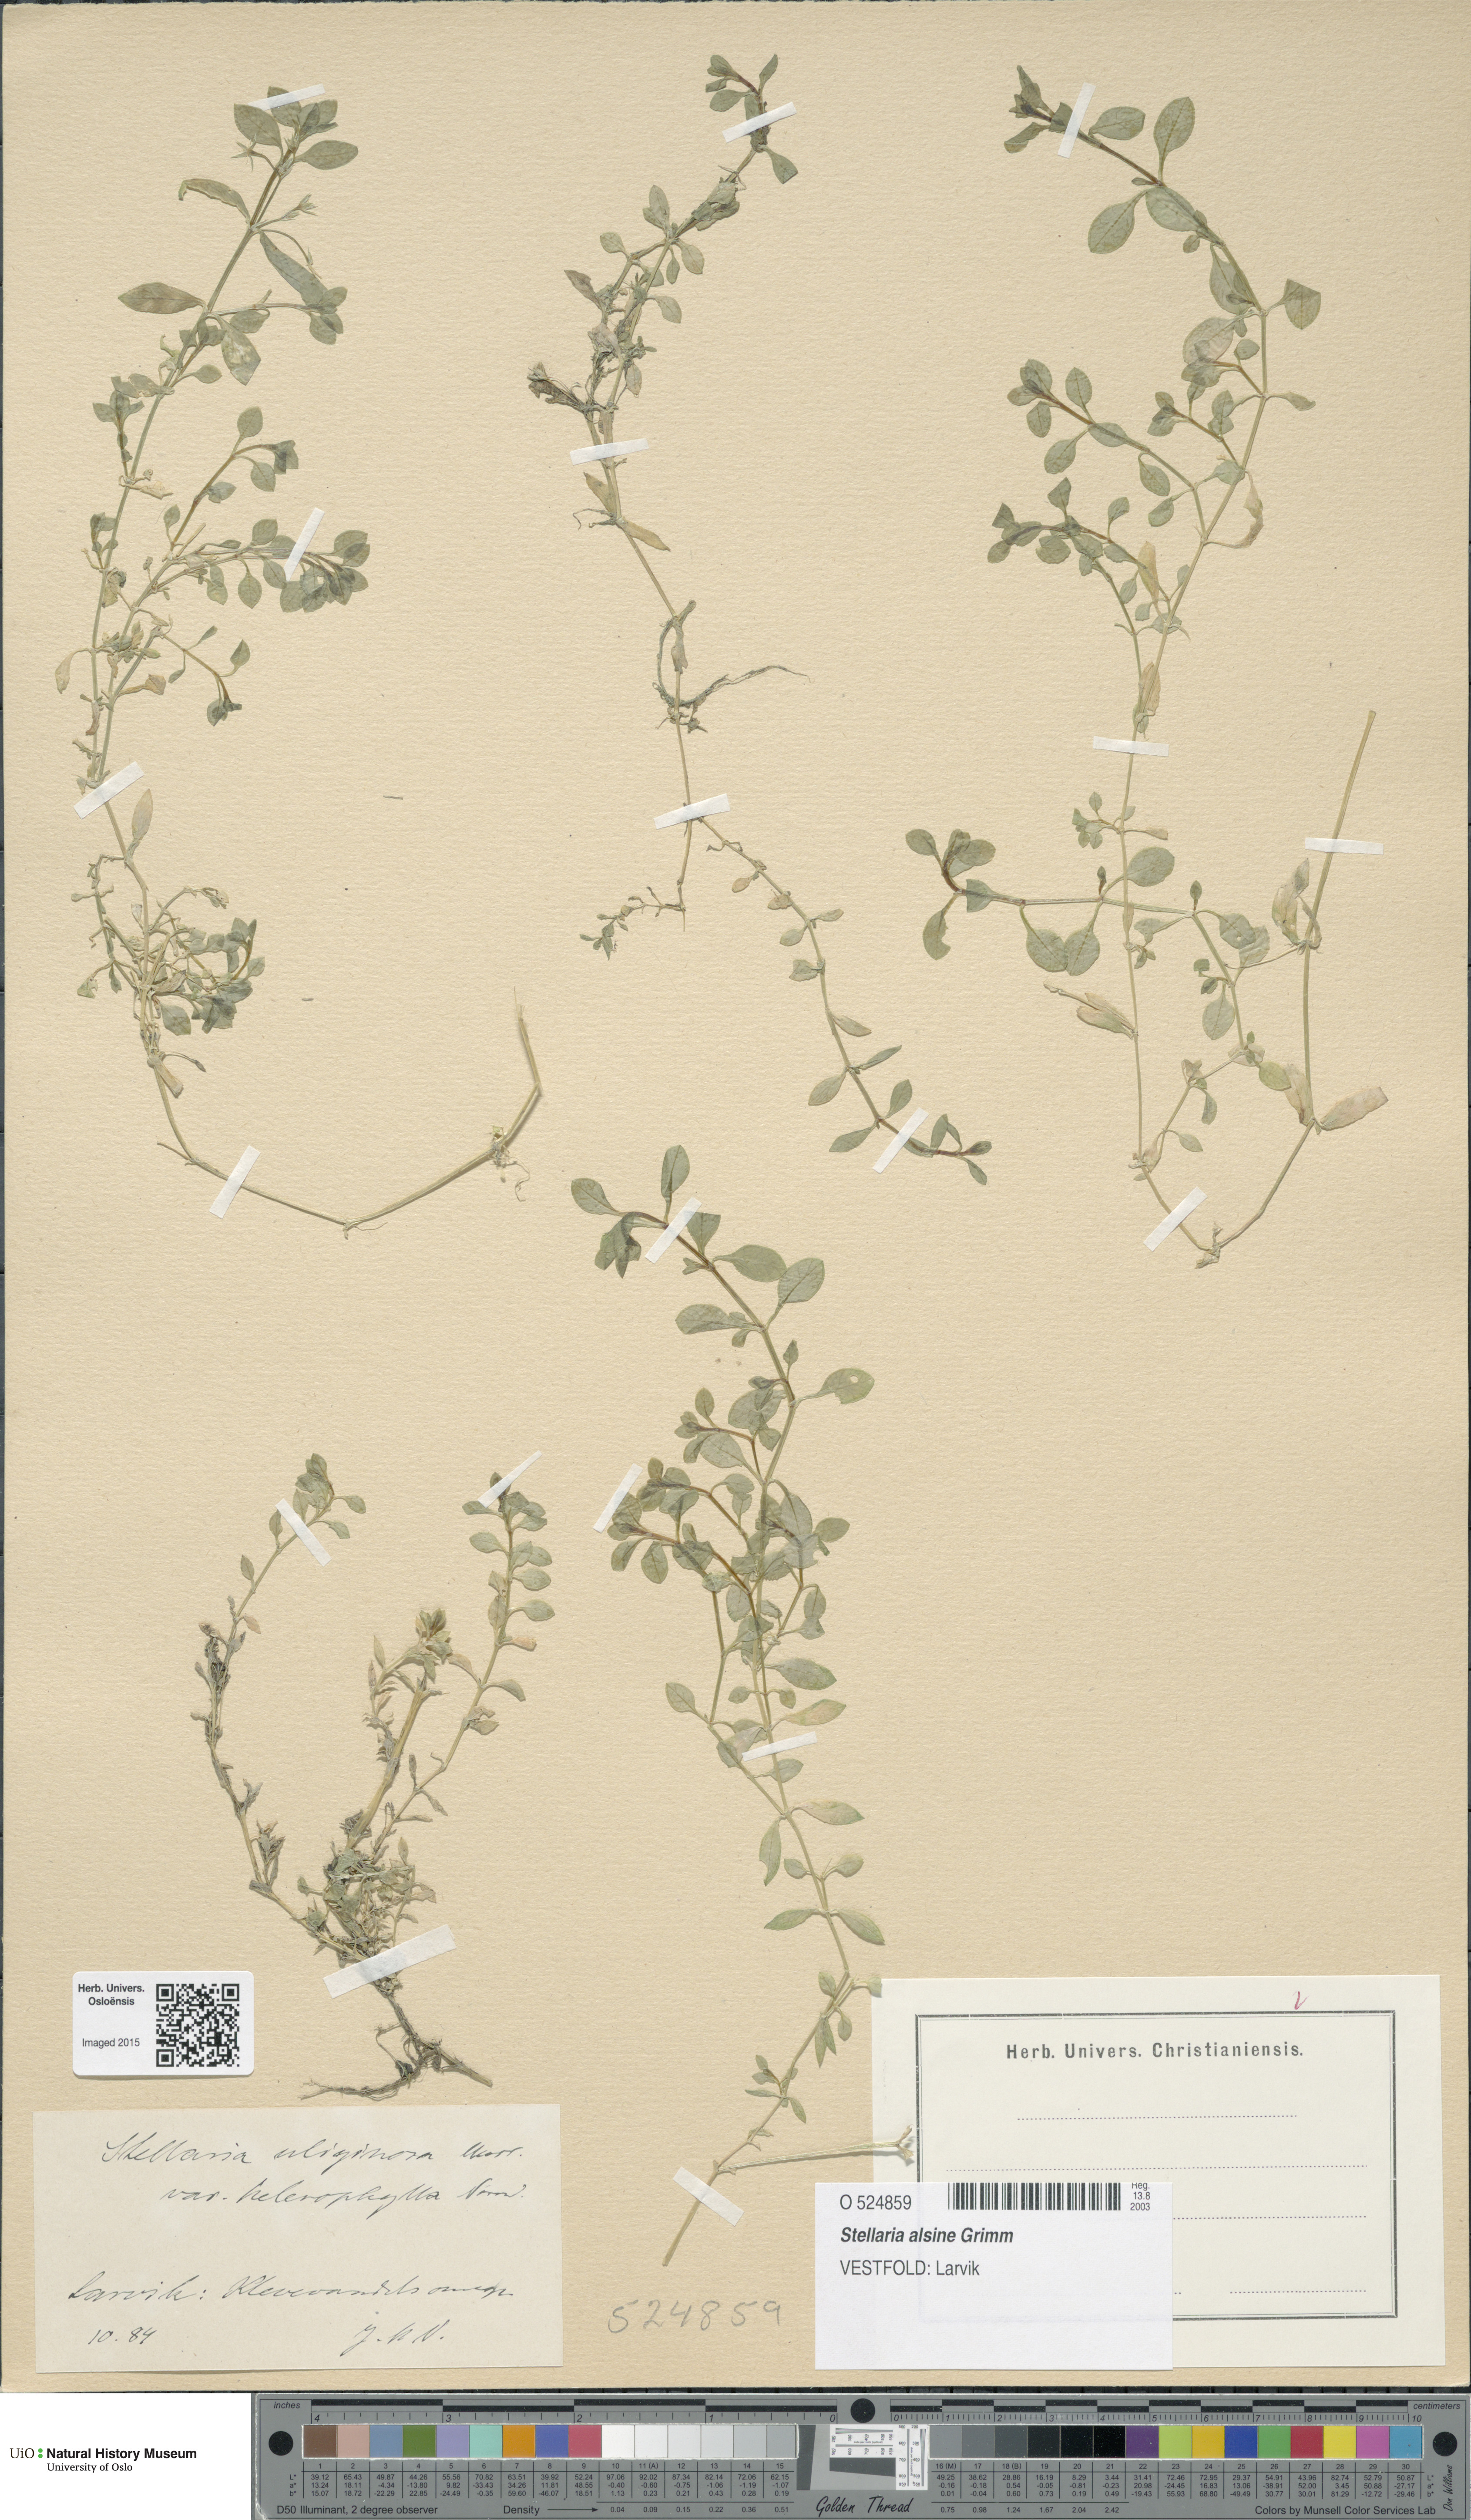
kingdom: Plantae
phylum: Tracheophyta
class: Magnoliopsida
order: Caryophyllales
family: Caryophyllaceae
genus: Stellaria
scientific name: Stellaria alsine
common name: Bog stitchwort
